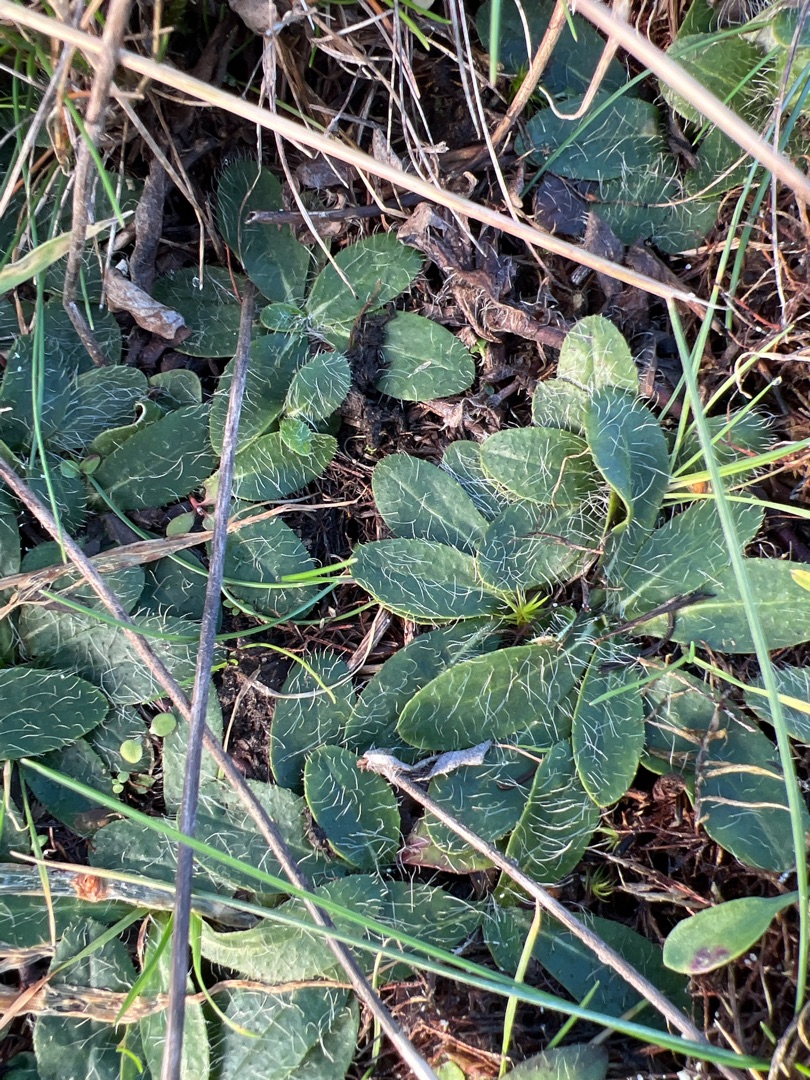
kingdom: Plantae
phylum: Tracheophyta
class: Magnoliopsida
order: Asterales
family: Asteraceae
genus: Pilosella
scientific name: Pilosella officinarum
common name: Håret høgeurt
